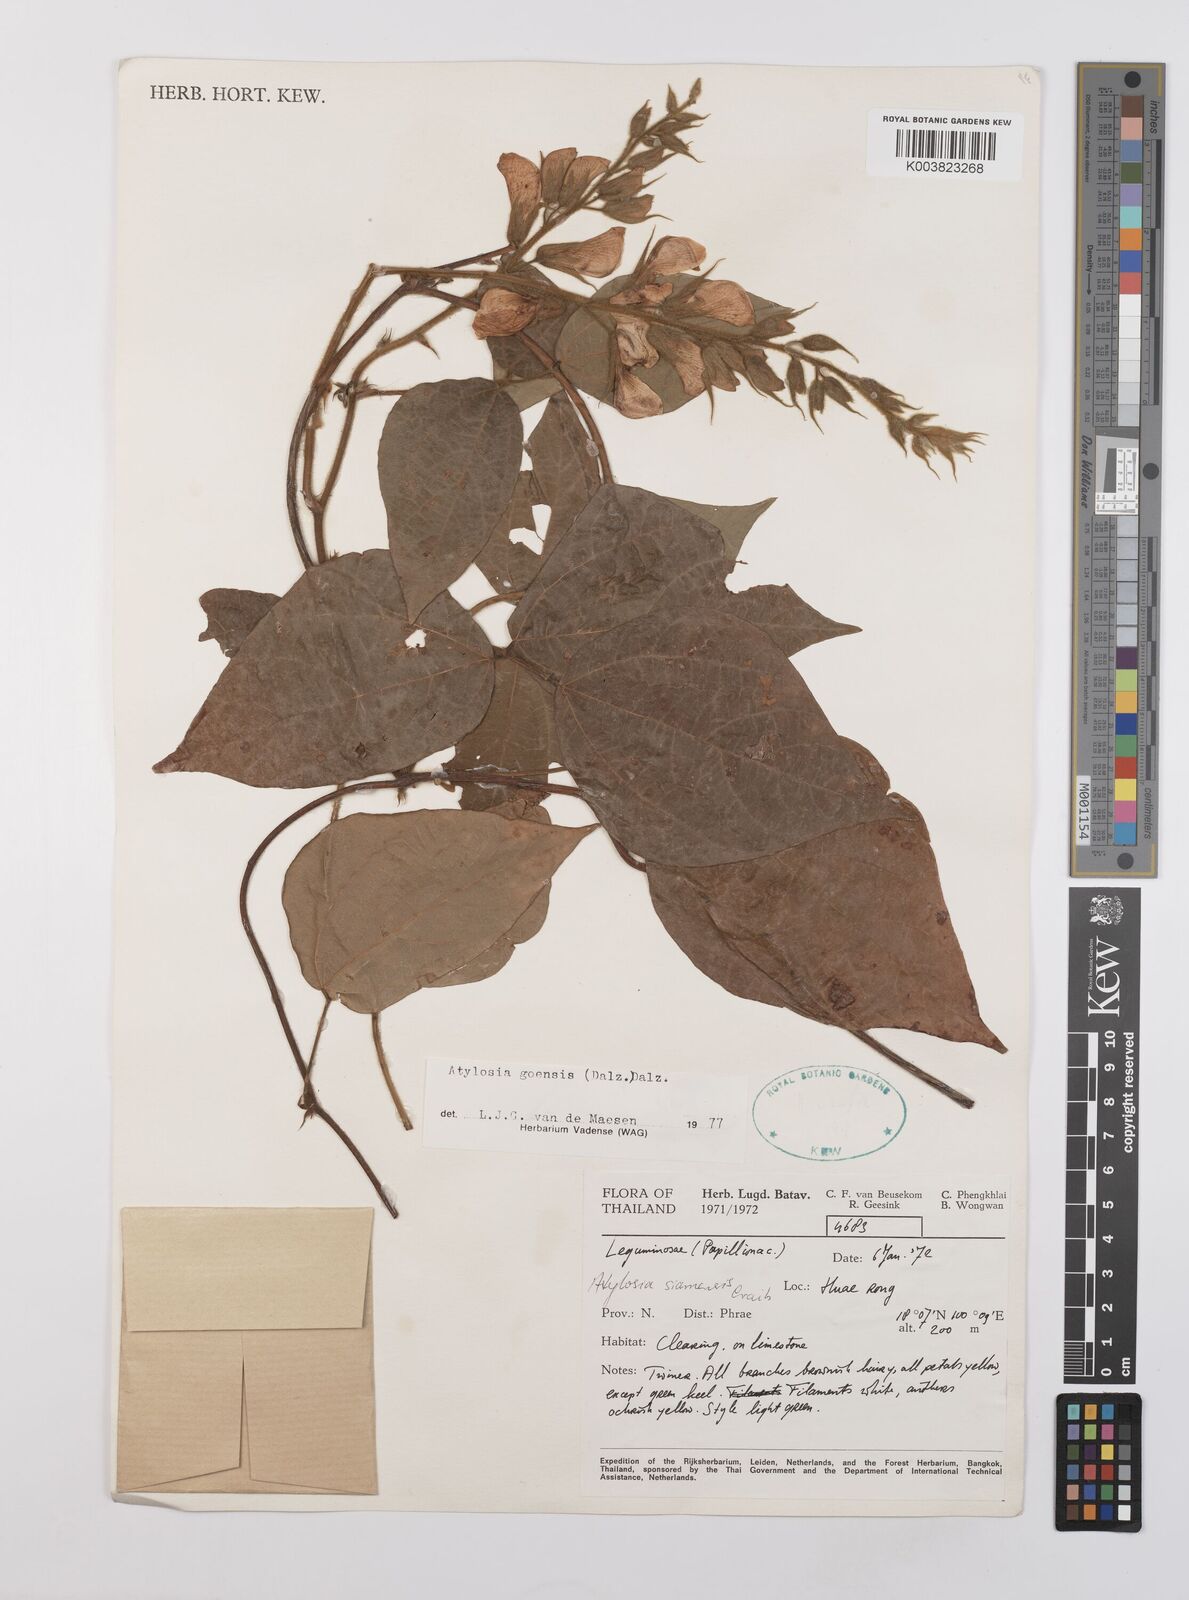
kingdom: Plantae
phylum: Tracheophyta
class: Magnoliopsida
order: Fabales
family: Fabaceae
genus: Cajanus
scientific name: Cajanus goensis
